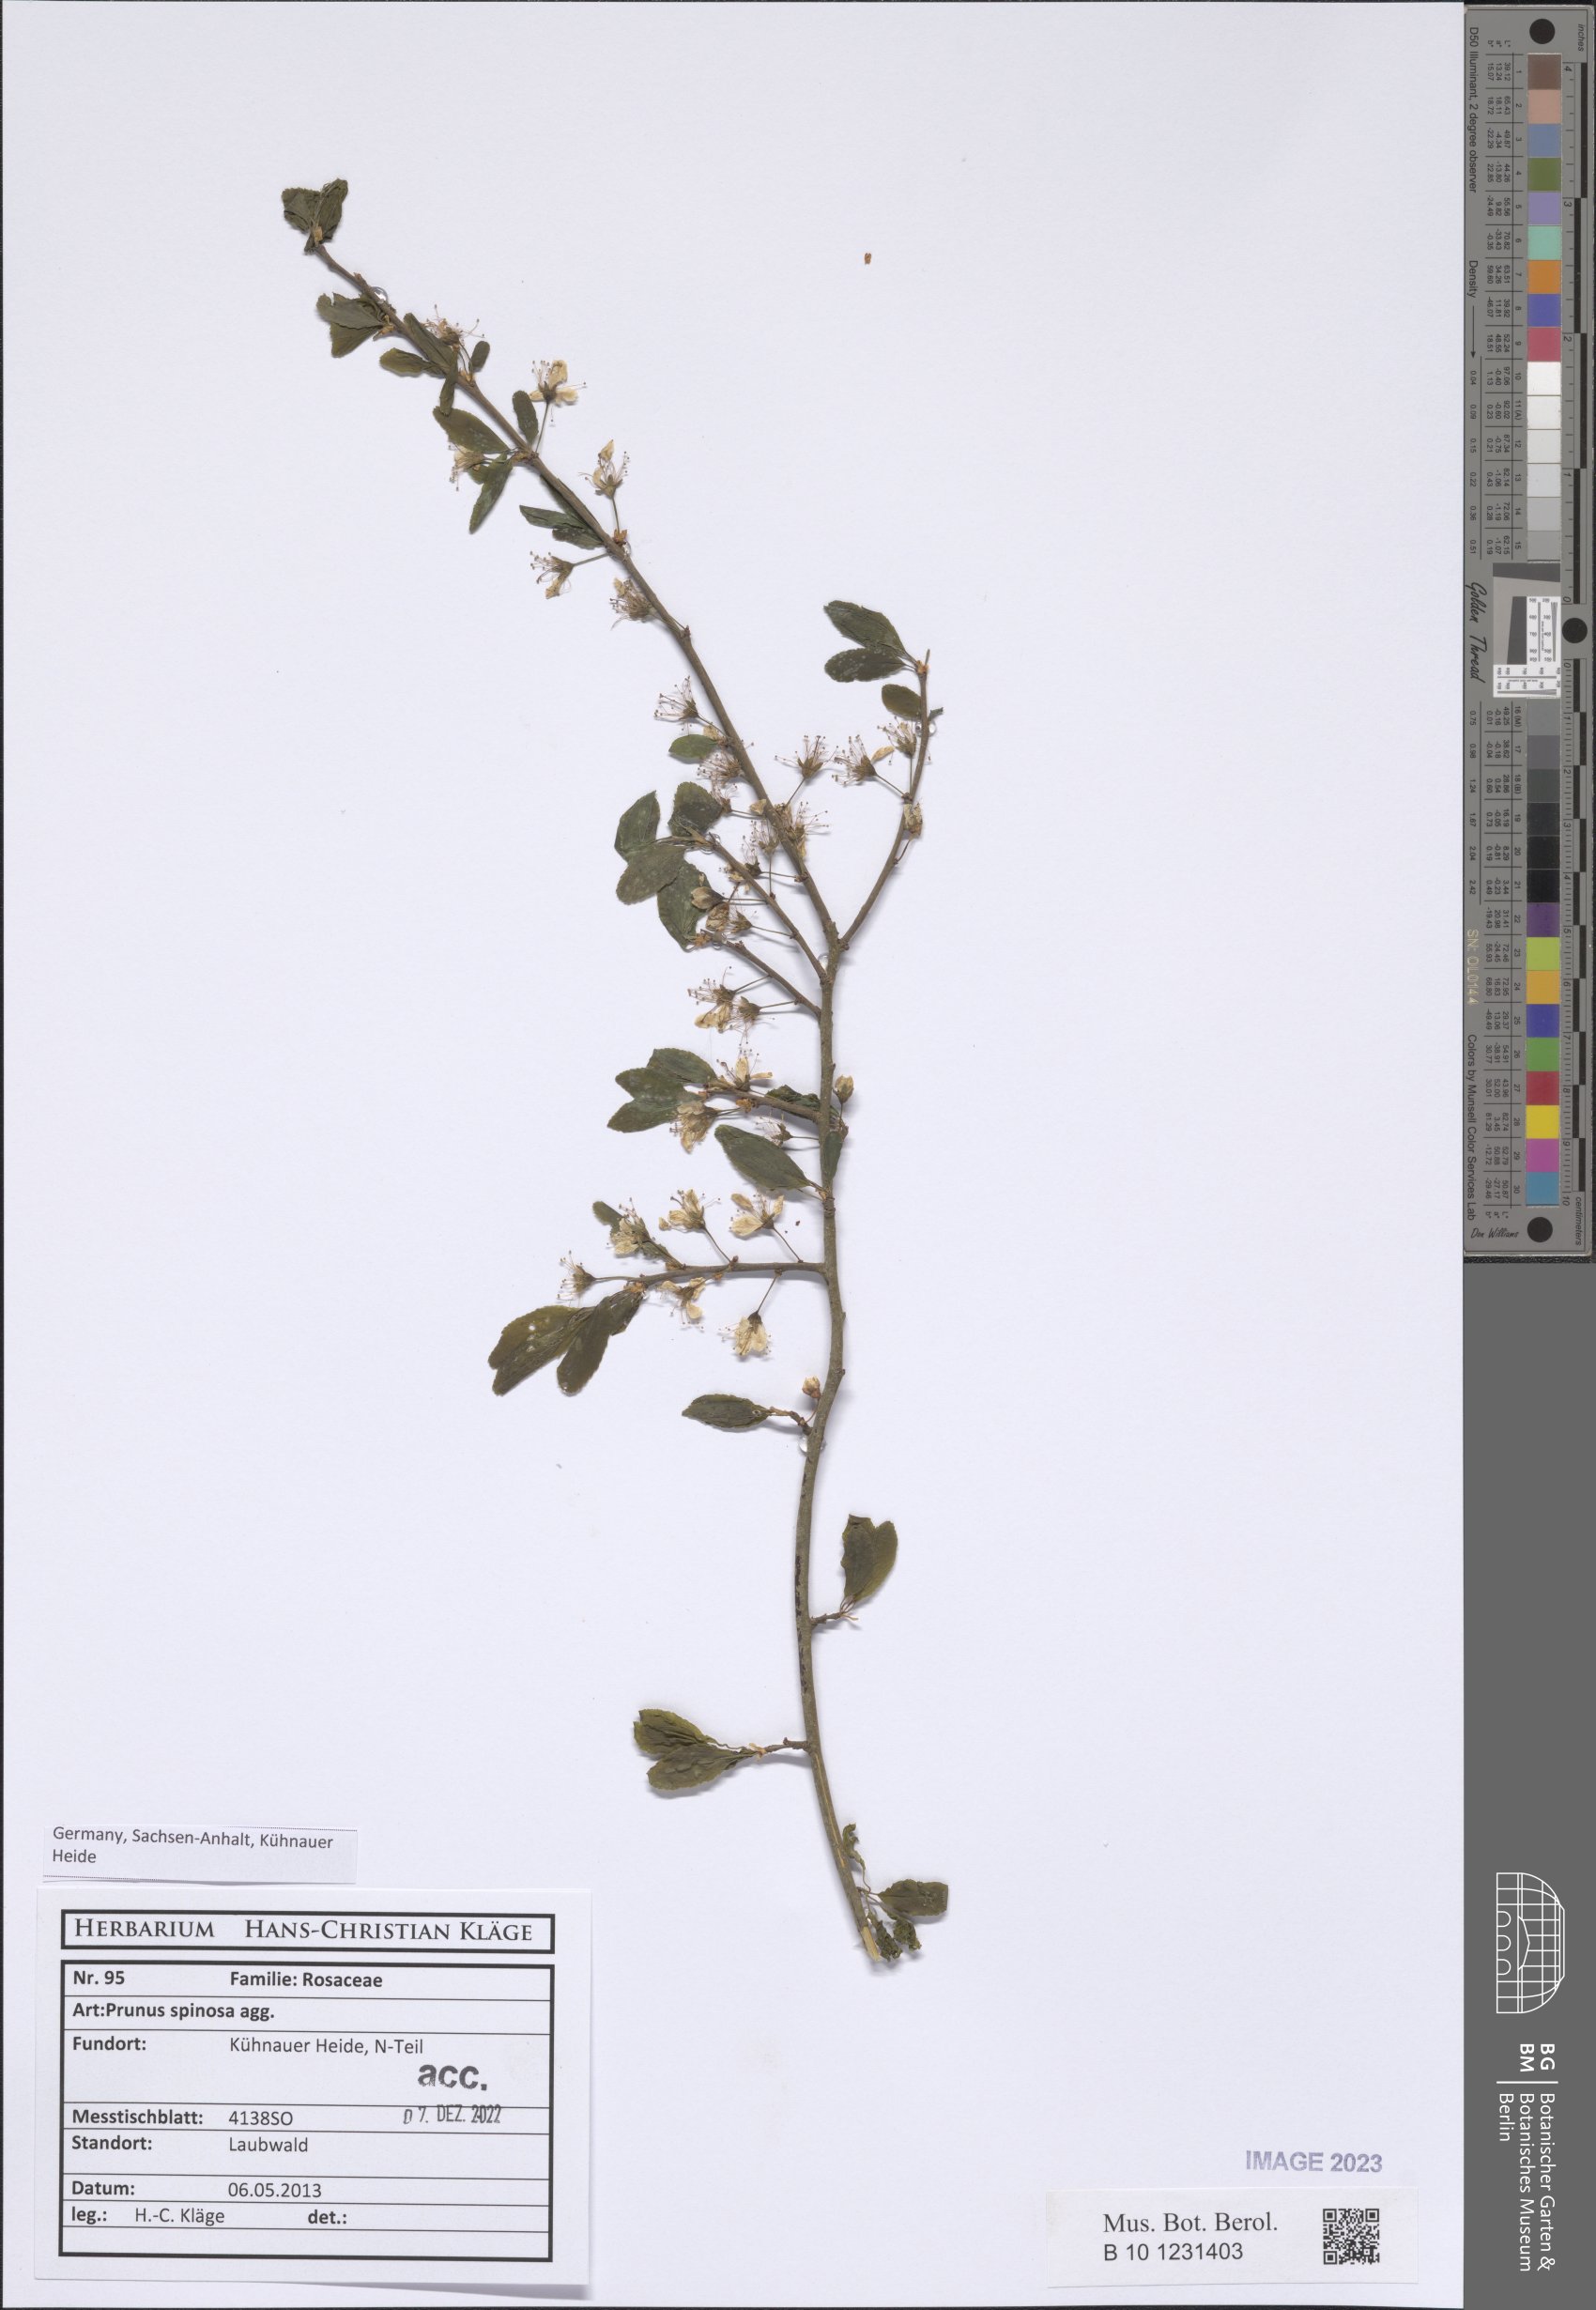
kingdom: Plantae
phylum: Tracheophyta
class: Magnoliopsida
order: Rosales
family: Rosaceae
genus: Prunus
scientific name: Prunus spinosa
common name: Blackthorn
